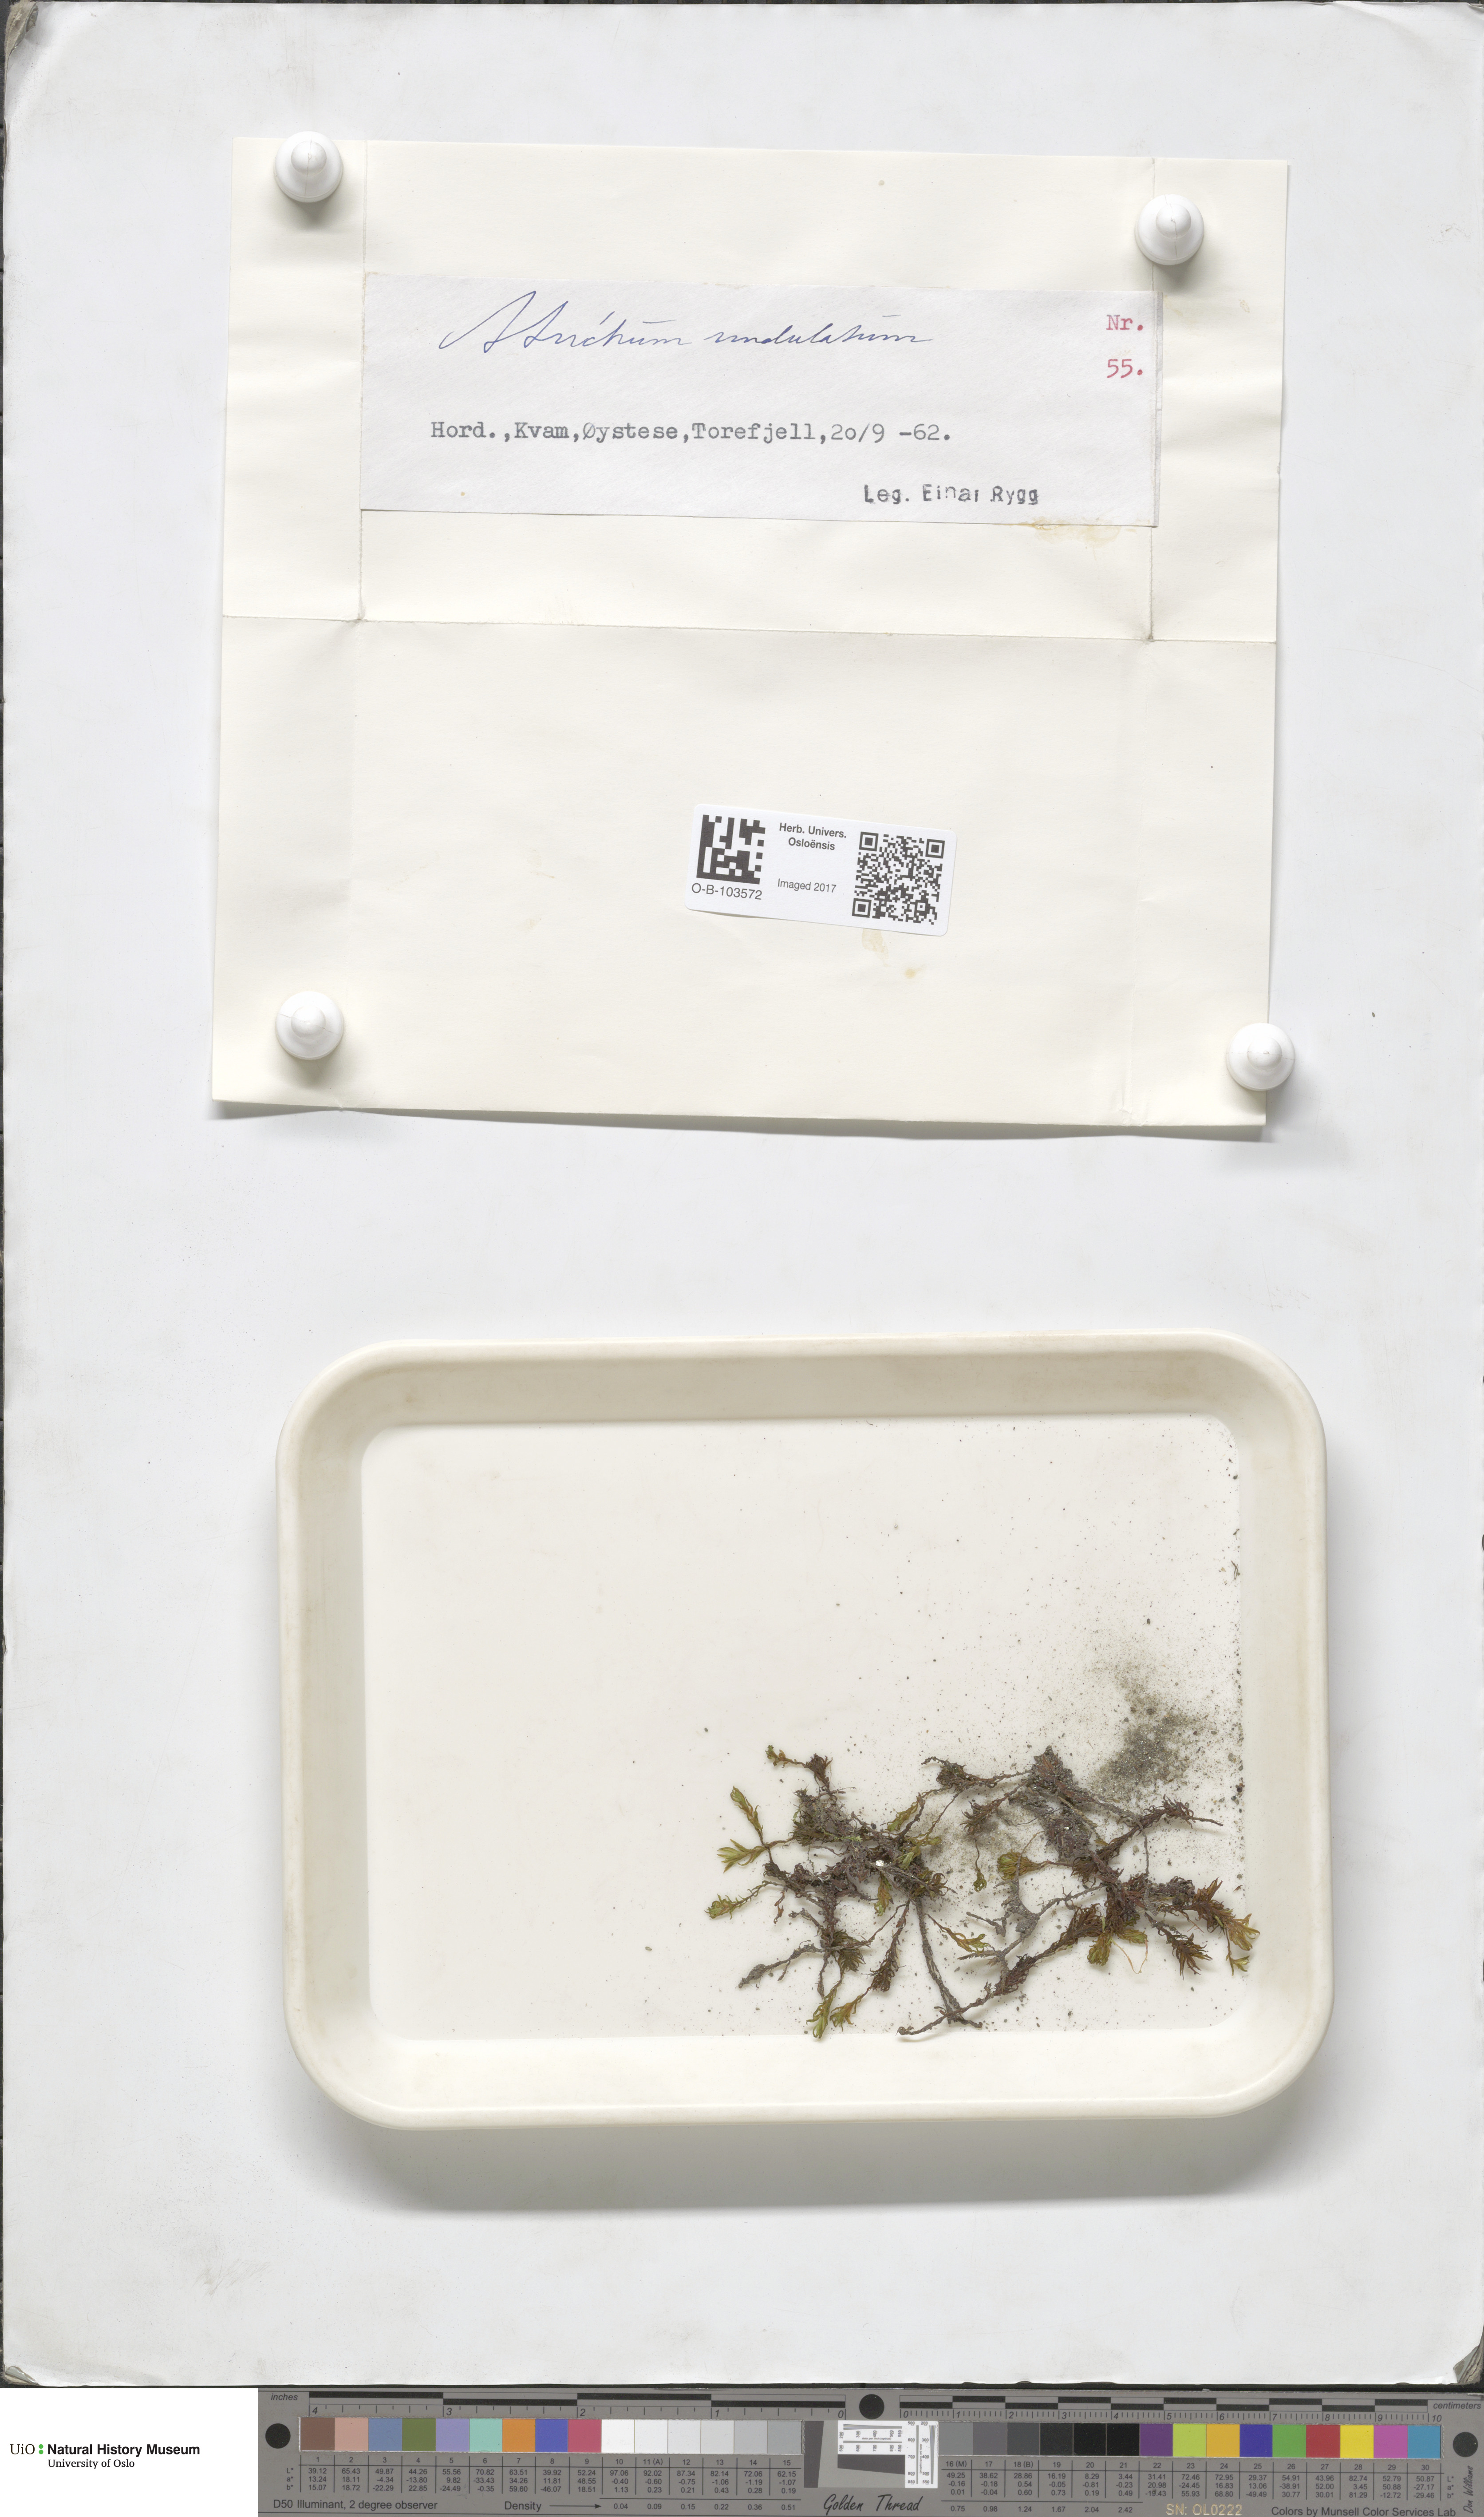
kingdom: Plantae
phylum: Bryophyta
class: Polytrichopsida
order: Polytrichales
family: Polytrichaceae
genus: Atrichum
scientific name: Atrichum undulatum
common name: Common smoothcap
